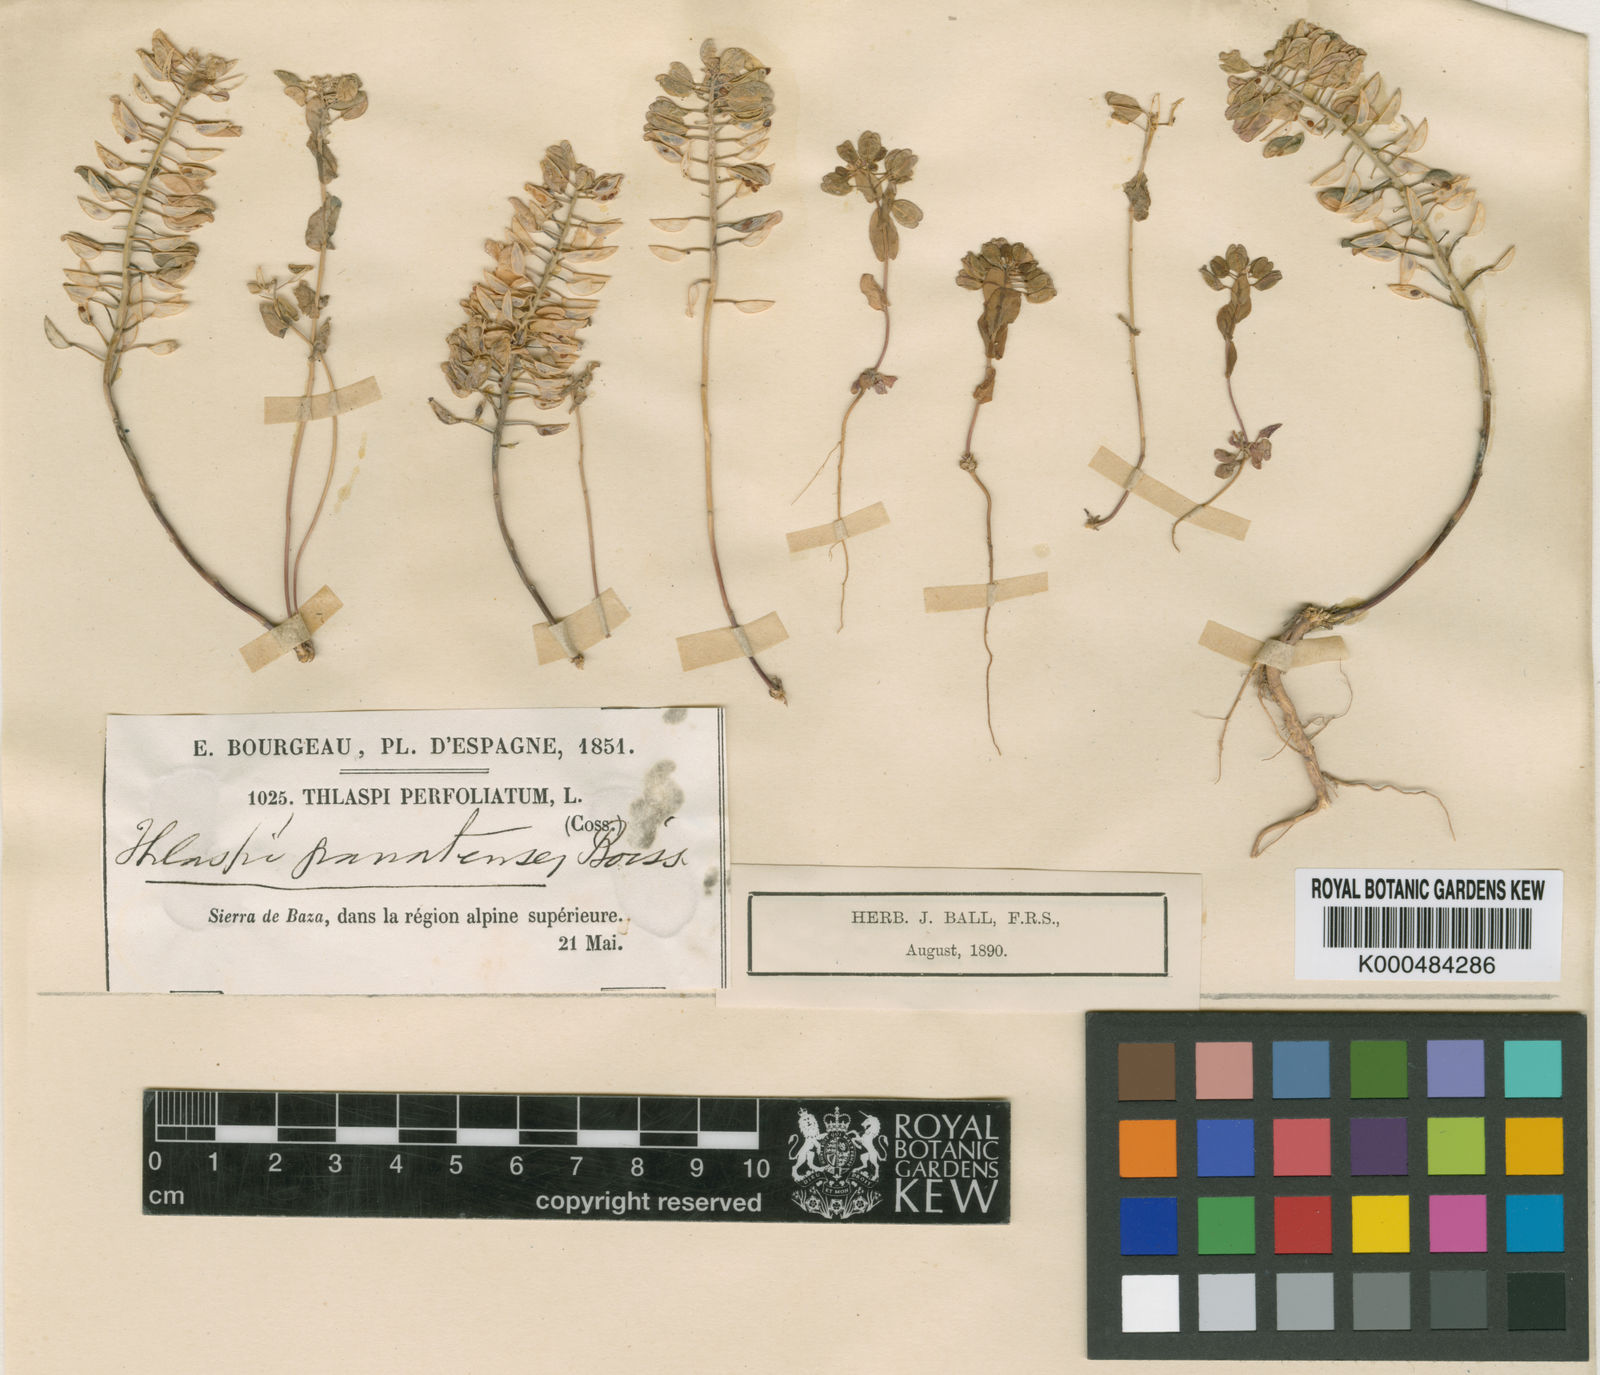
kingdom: Plantae
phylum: Tracheophyta
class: Magnoliopsida
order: Brassicales
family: Brassicaceae
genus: Noccaea
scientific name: Noccaea perfoliata
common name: Perfoliate pennycress
